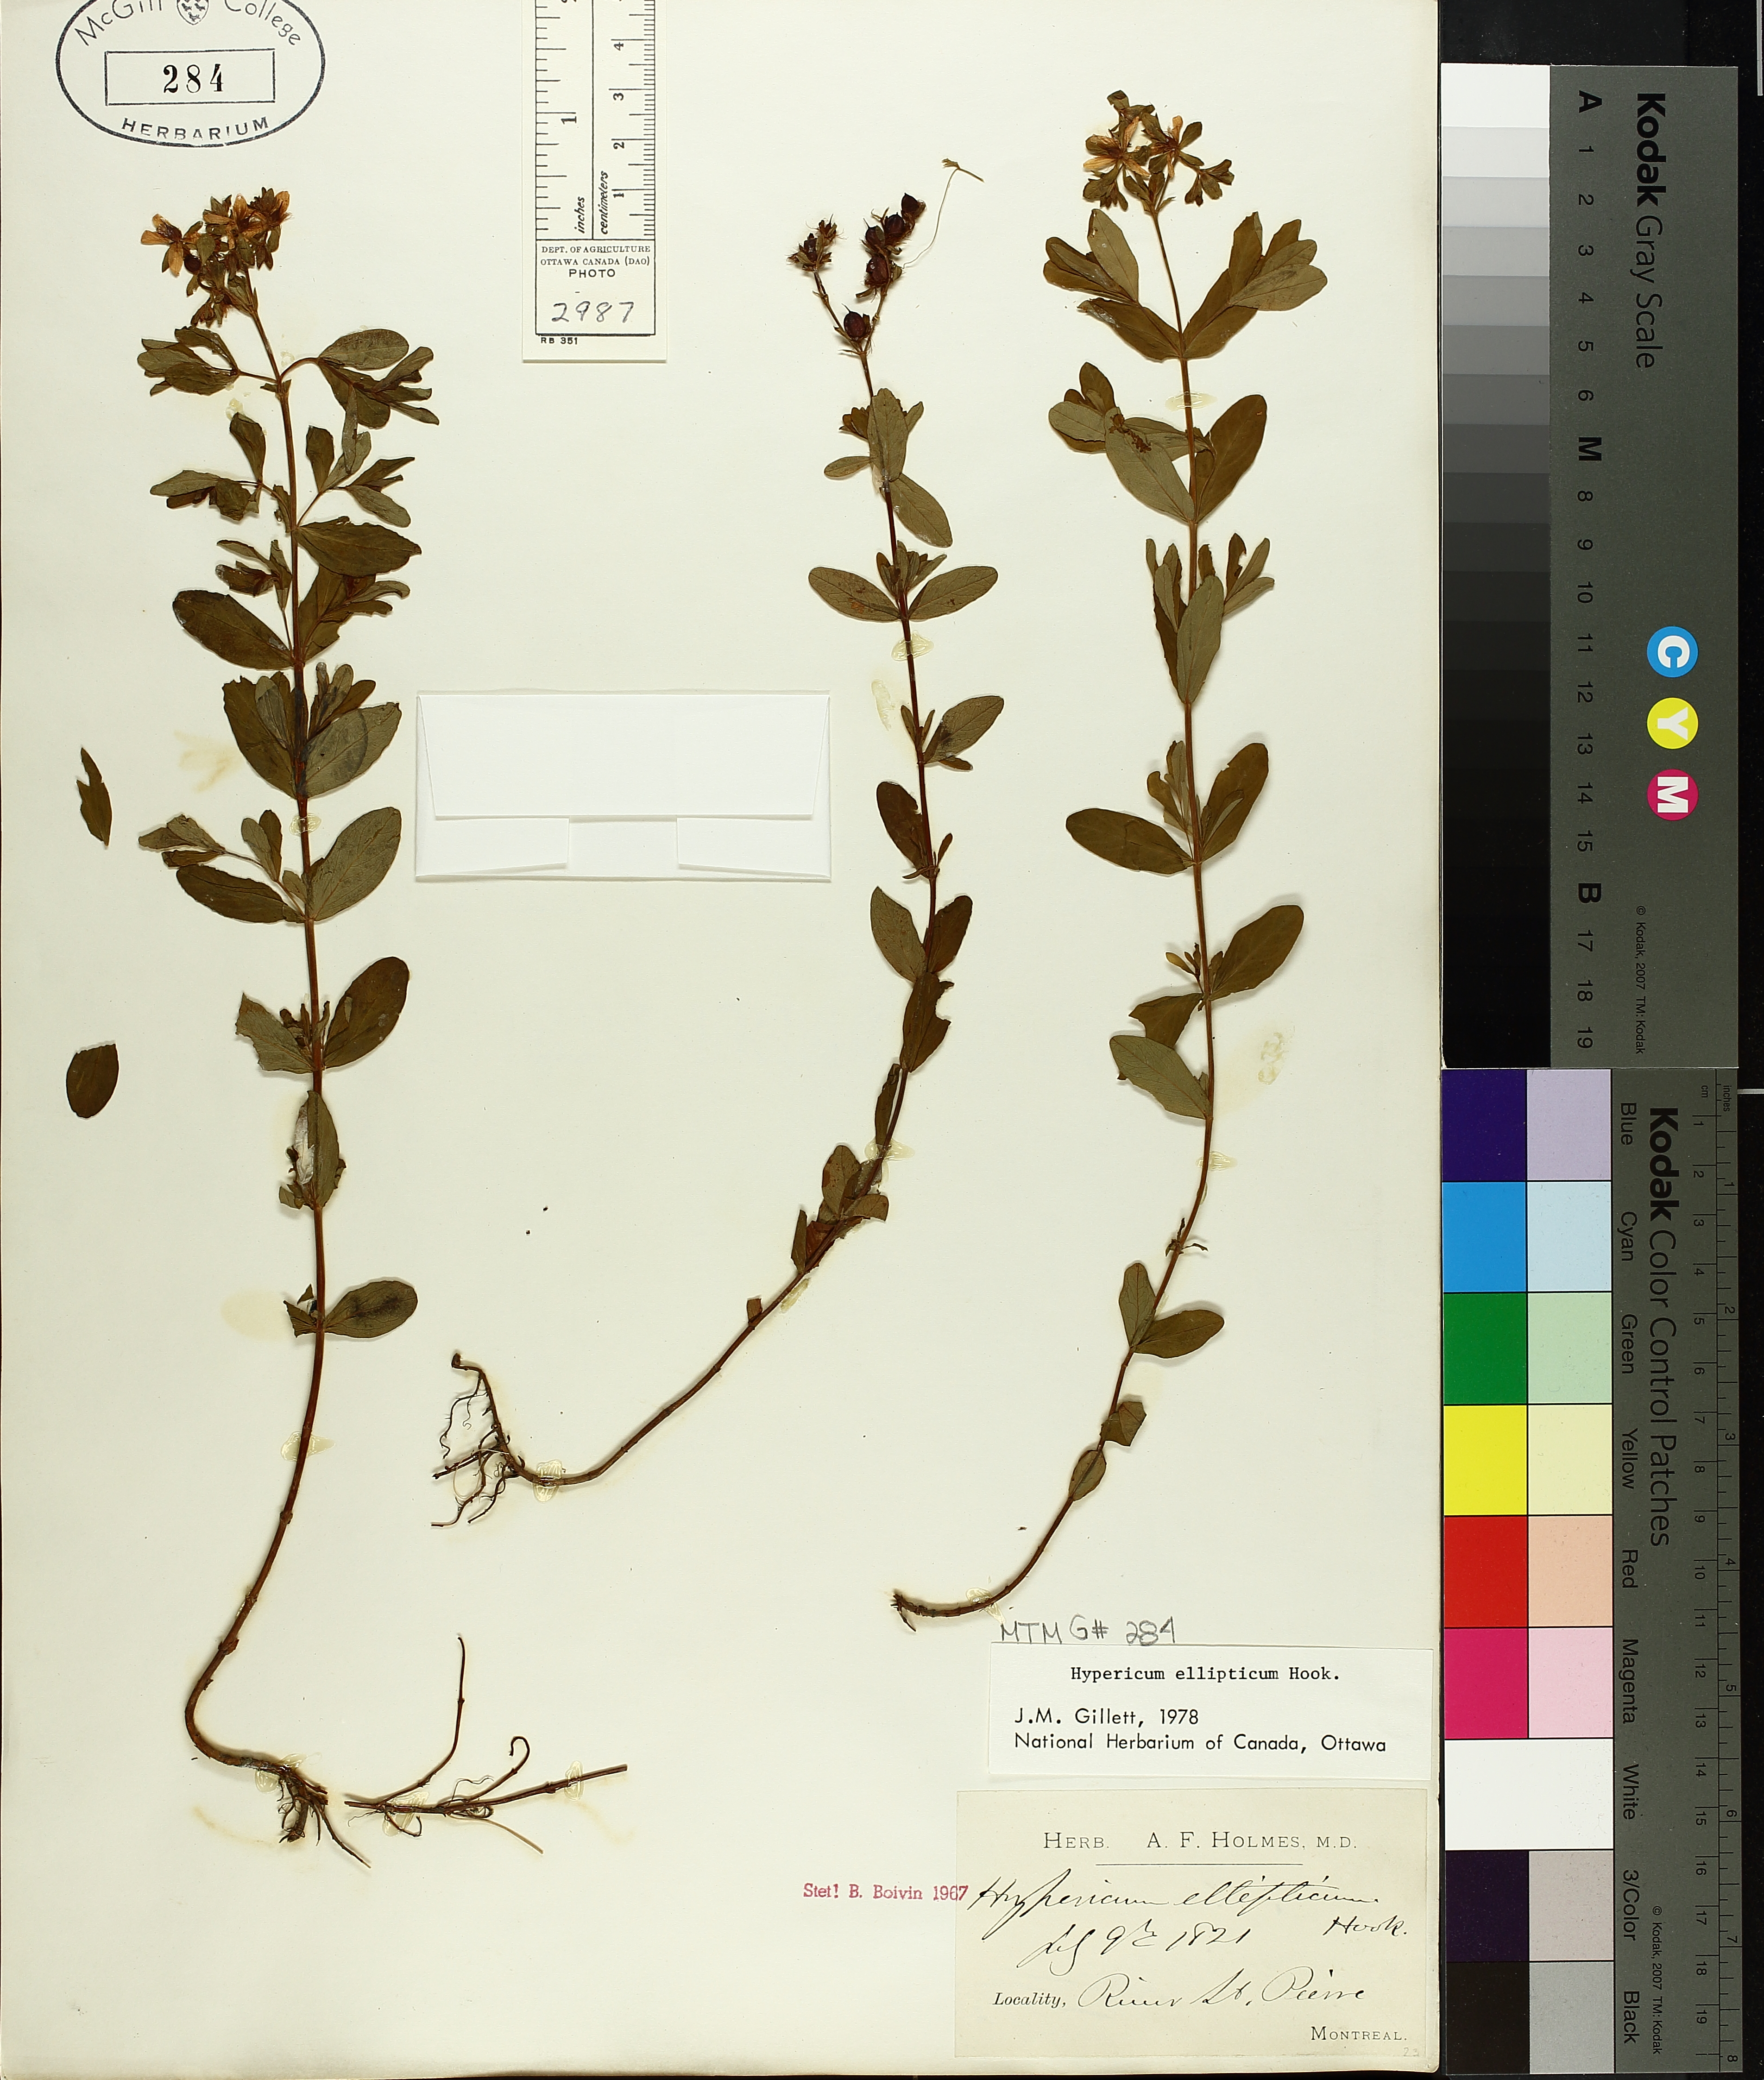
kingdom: Plantae
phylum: Tracheophyta
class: Magnoliopsida
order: Malpighiales
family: Hypericaceae
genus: Hypericum
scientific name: Hypericum ellipticum
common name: Elliptic st. john's-wort
